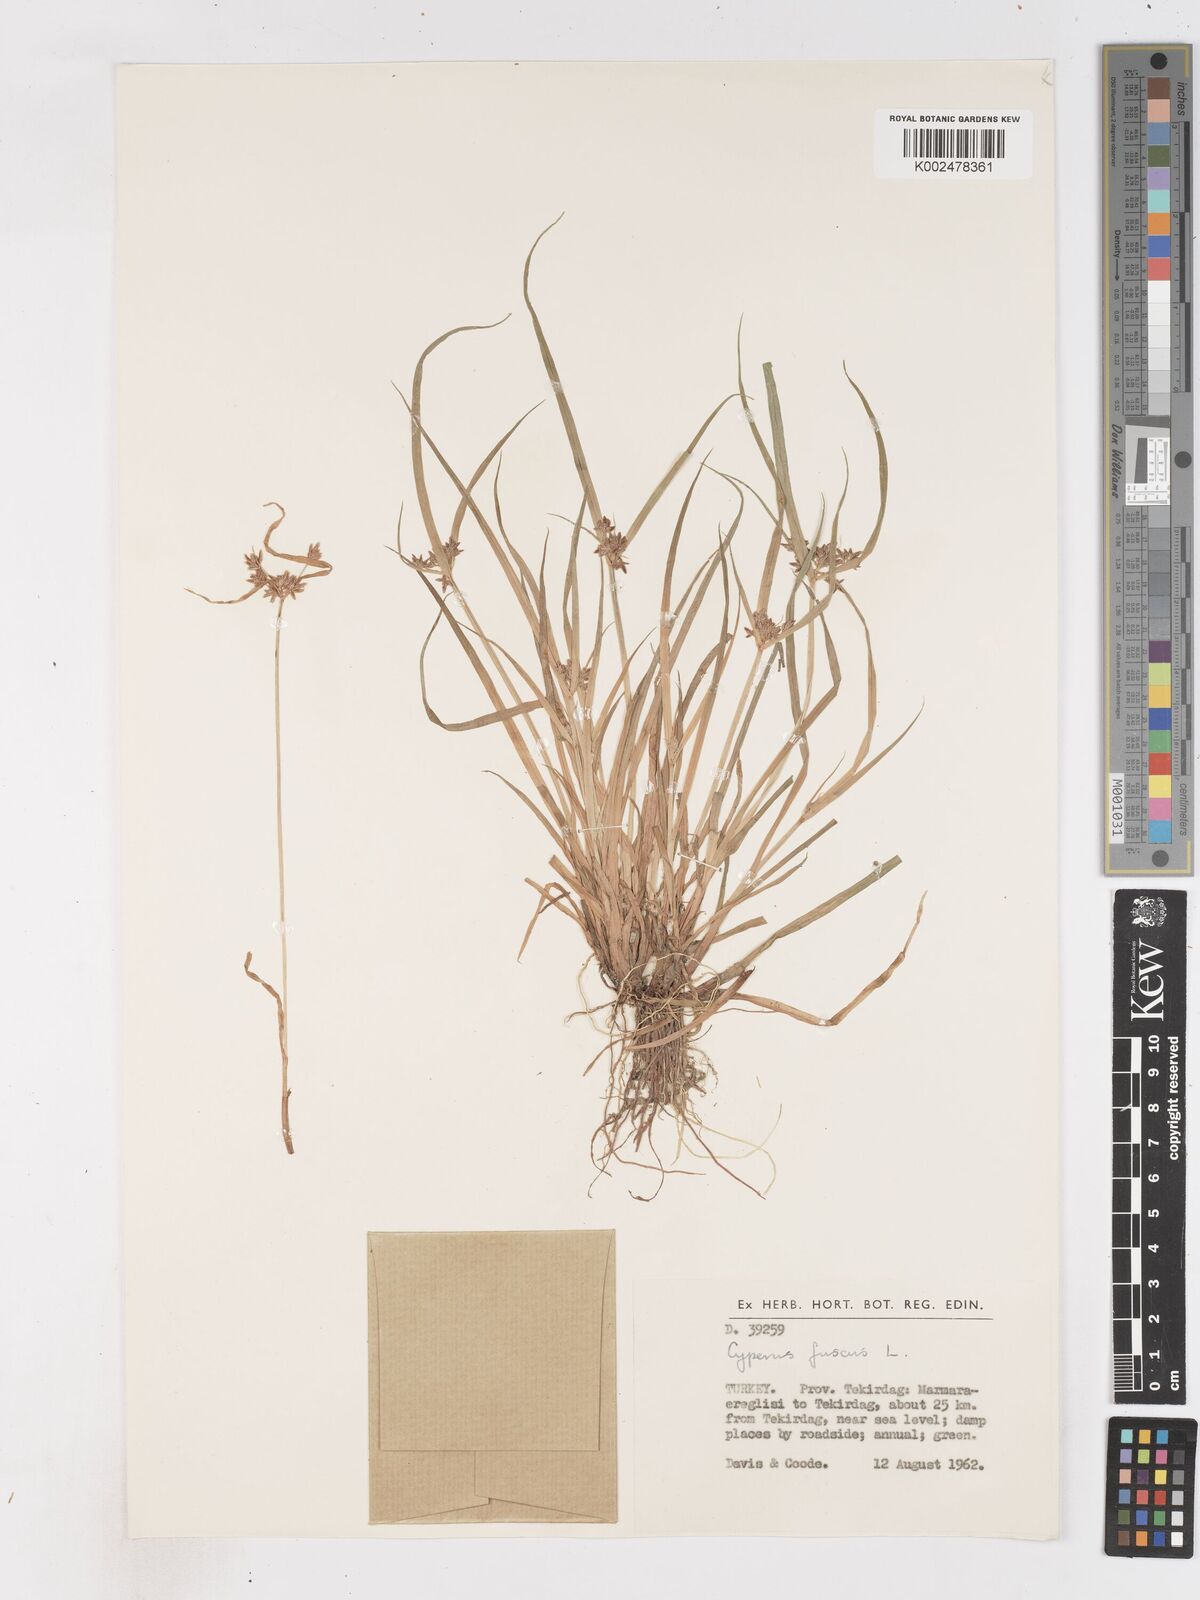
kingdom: Plantae
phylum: Tracheophyta
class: Liliopsida
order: Poales
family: Cyperaceae
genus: Cyperus
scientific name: Cyperus fuscus
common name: Brown galingale
